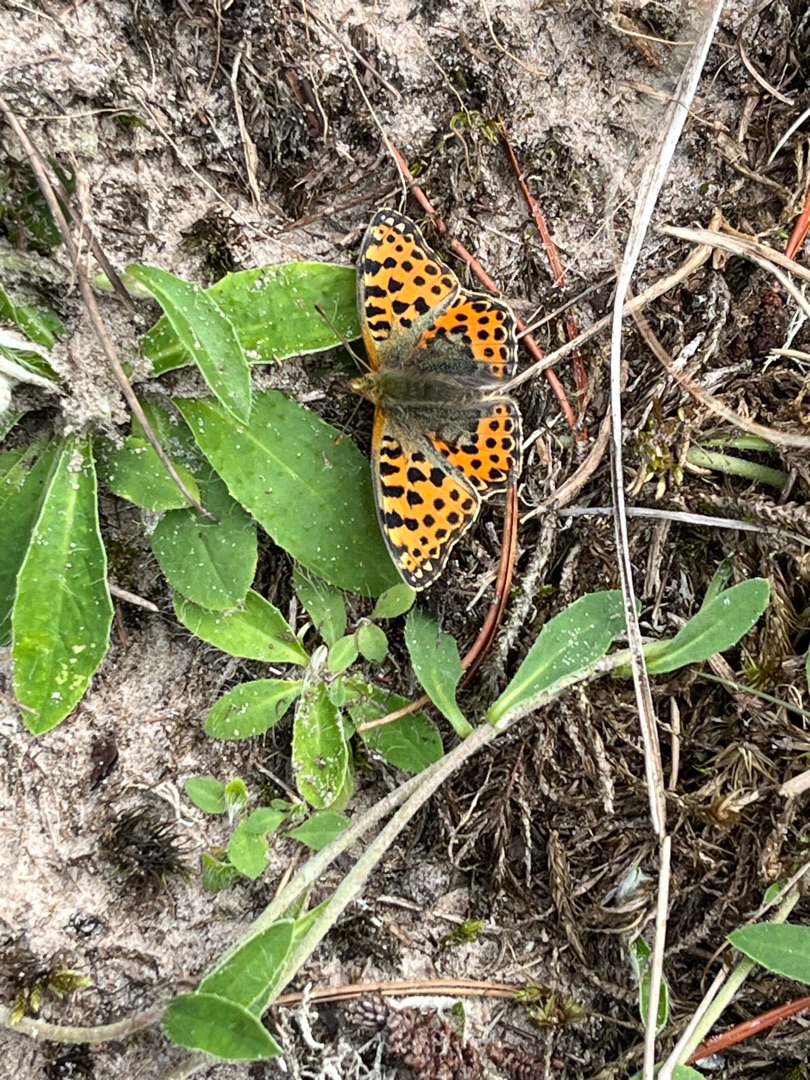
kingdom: Animalia
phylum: Arthropoda
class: Insecta
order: Lepidoptera
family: Nymphalidae
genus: Issoria
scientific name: Issoria lathonia
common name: Storplettet perlemorsommerfugl
